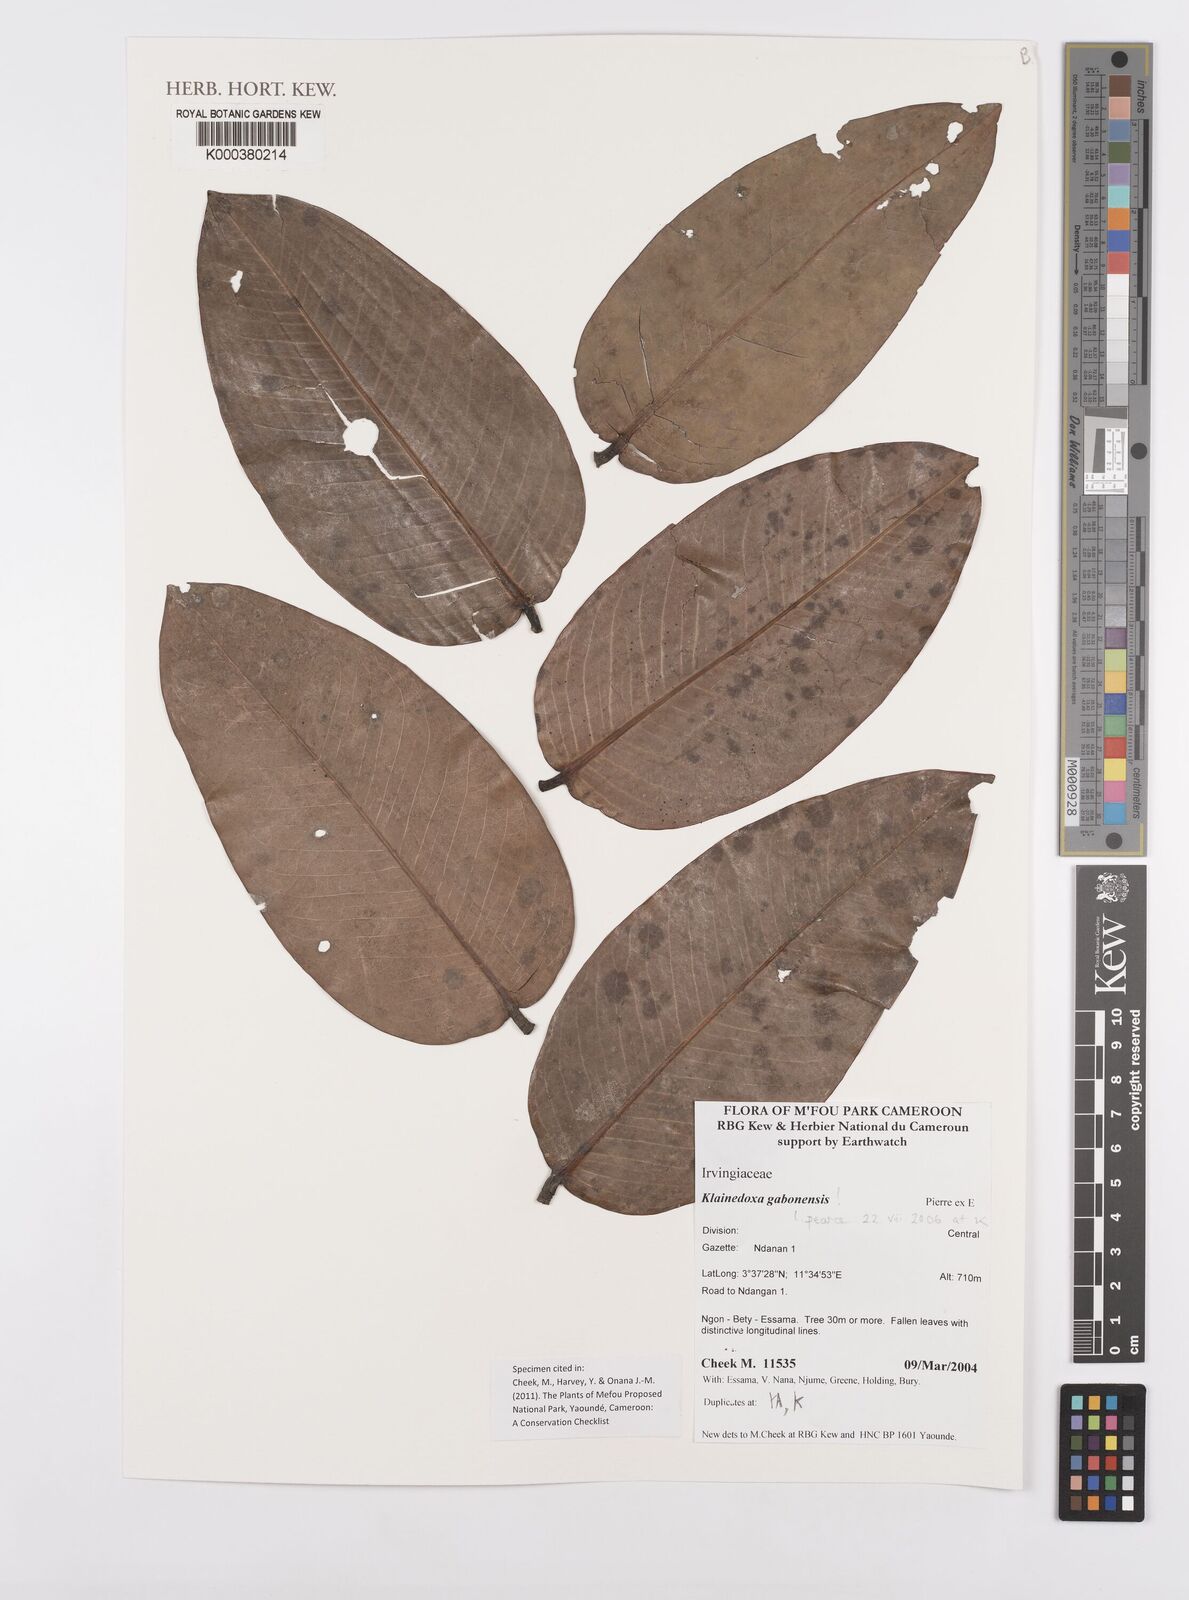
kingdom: Plantae
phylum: Tracheophyta
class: Magnoliopsida
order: Malpighiales
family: Irvingiaceae
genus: Klainedoxa
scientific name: Klainedoxa gabonensis
